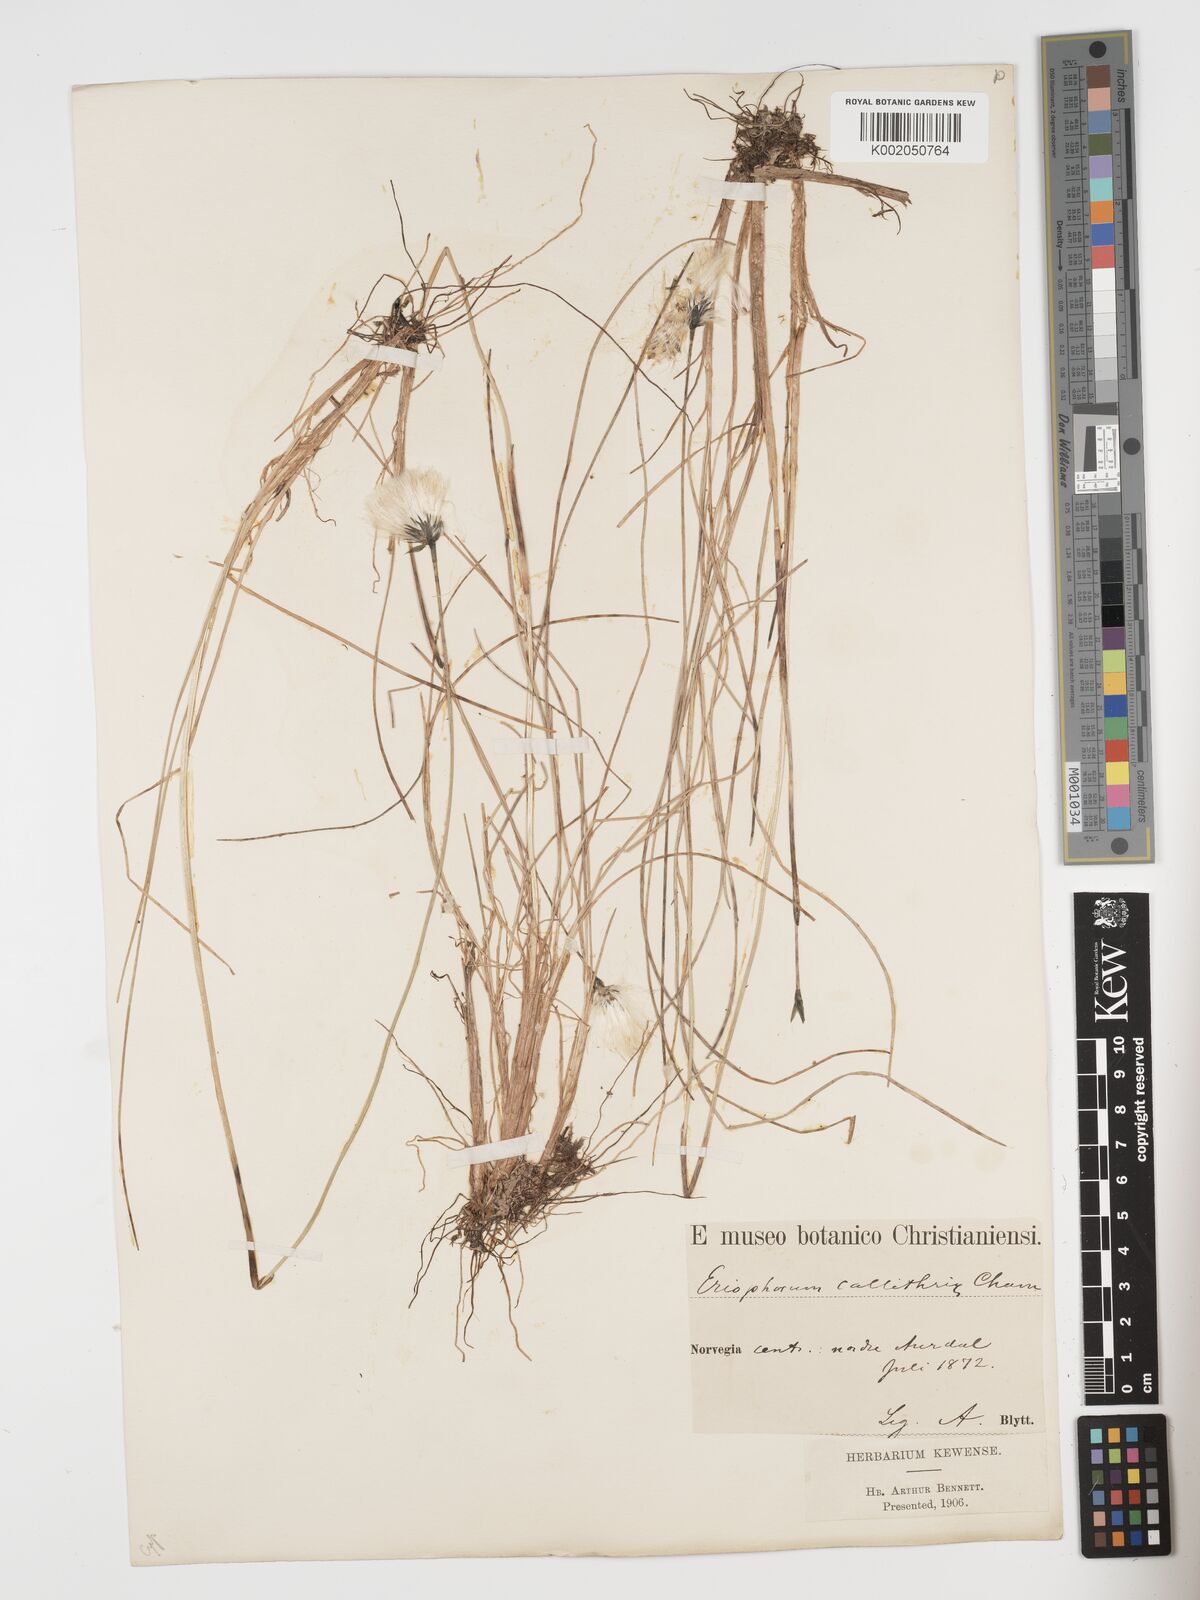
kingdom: Plantae
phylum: Tracheophyta
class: Liliopsida
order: Poales
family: Cyperaceae
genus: Eriophorum
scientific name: Eriophorum brachyantherum
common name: Closed-sheathed cottongrass
